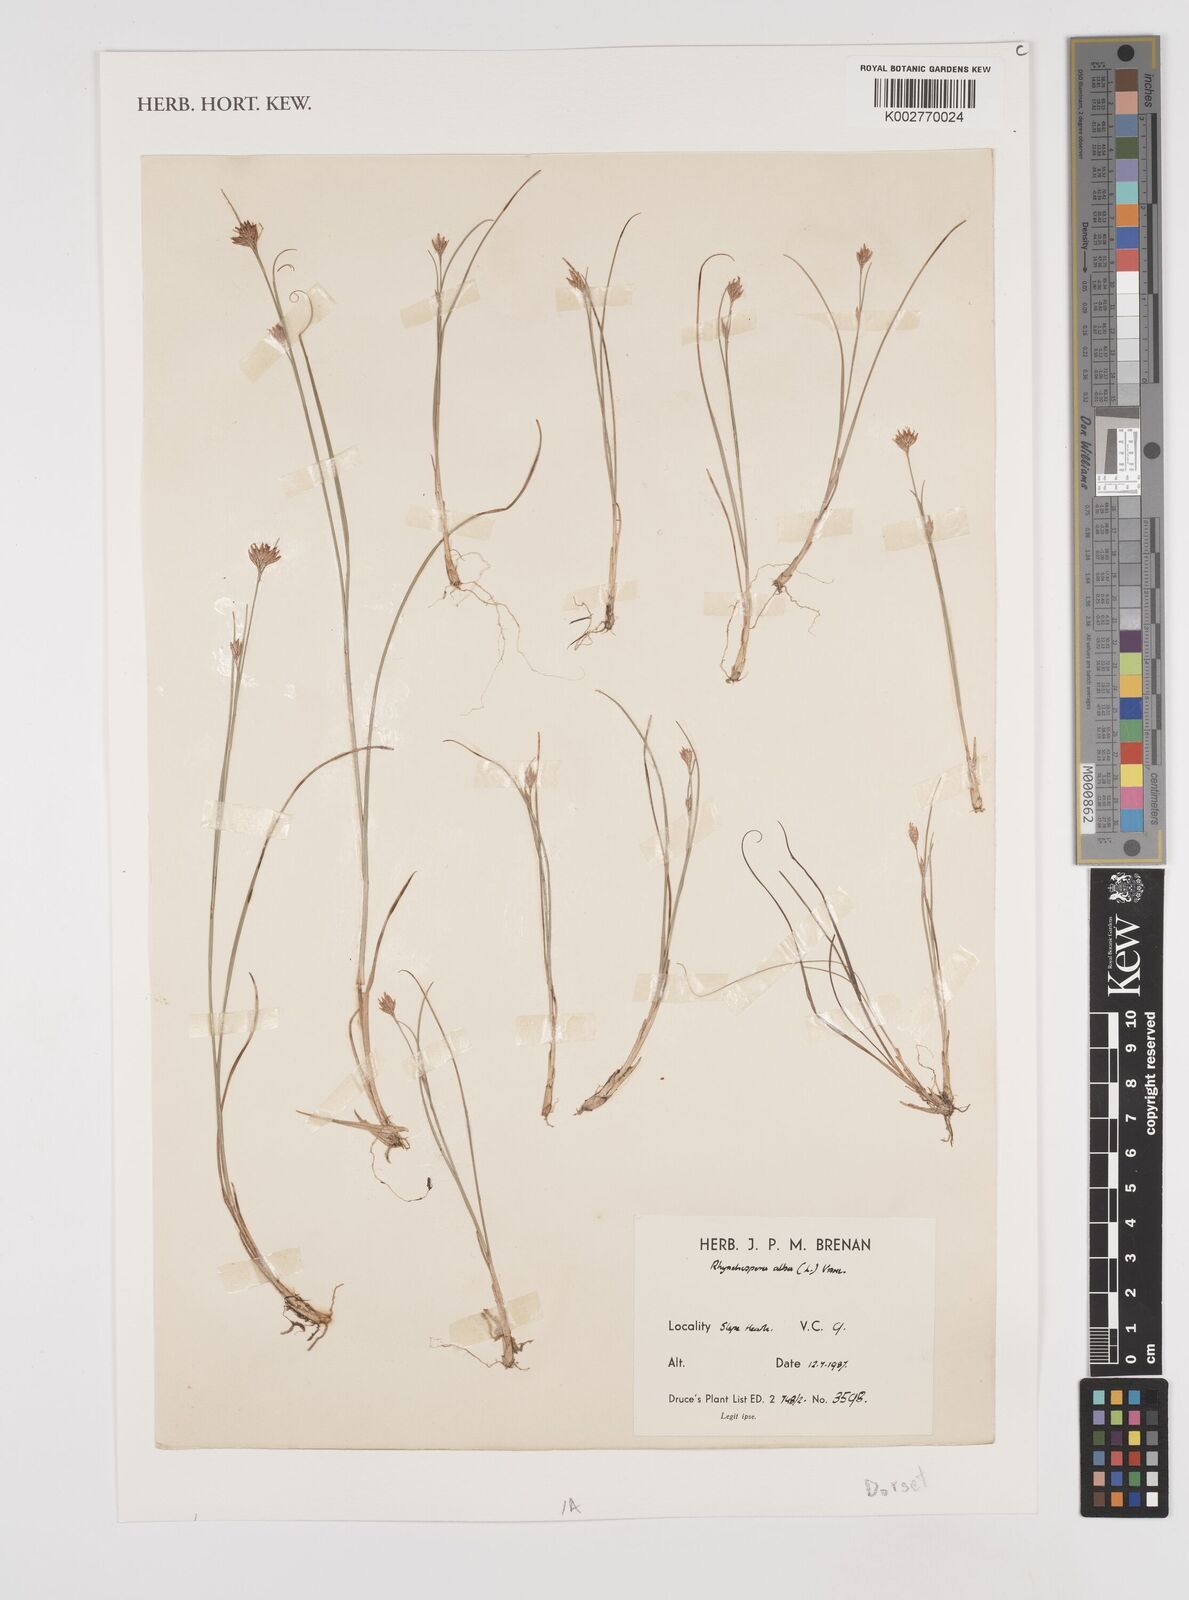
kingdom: Plantae
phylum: Tracheophyta
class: Liliopsida
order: Poales
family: Cyperaceae
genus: Rhynchospora
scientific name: Rhynchospora alba
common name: White beak-sedge
